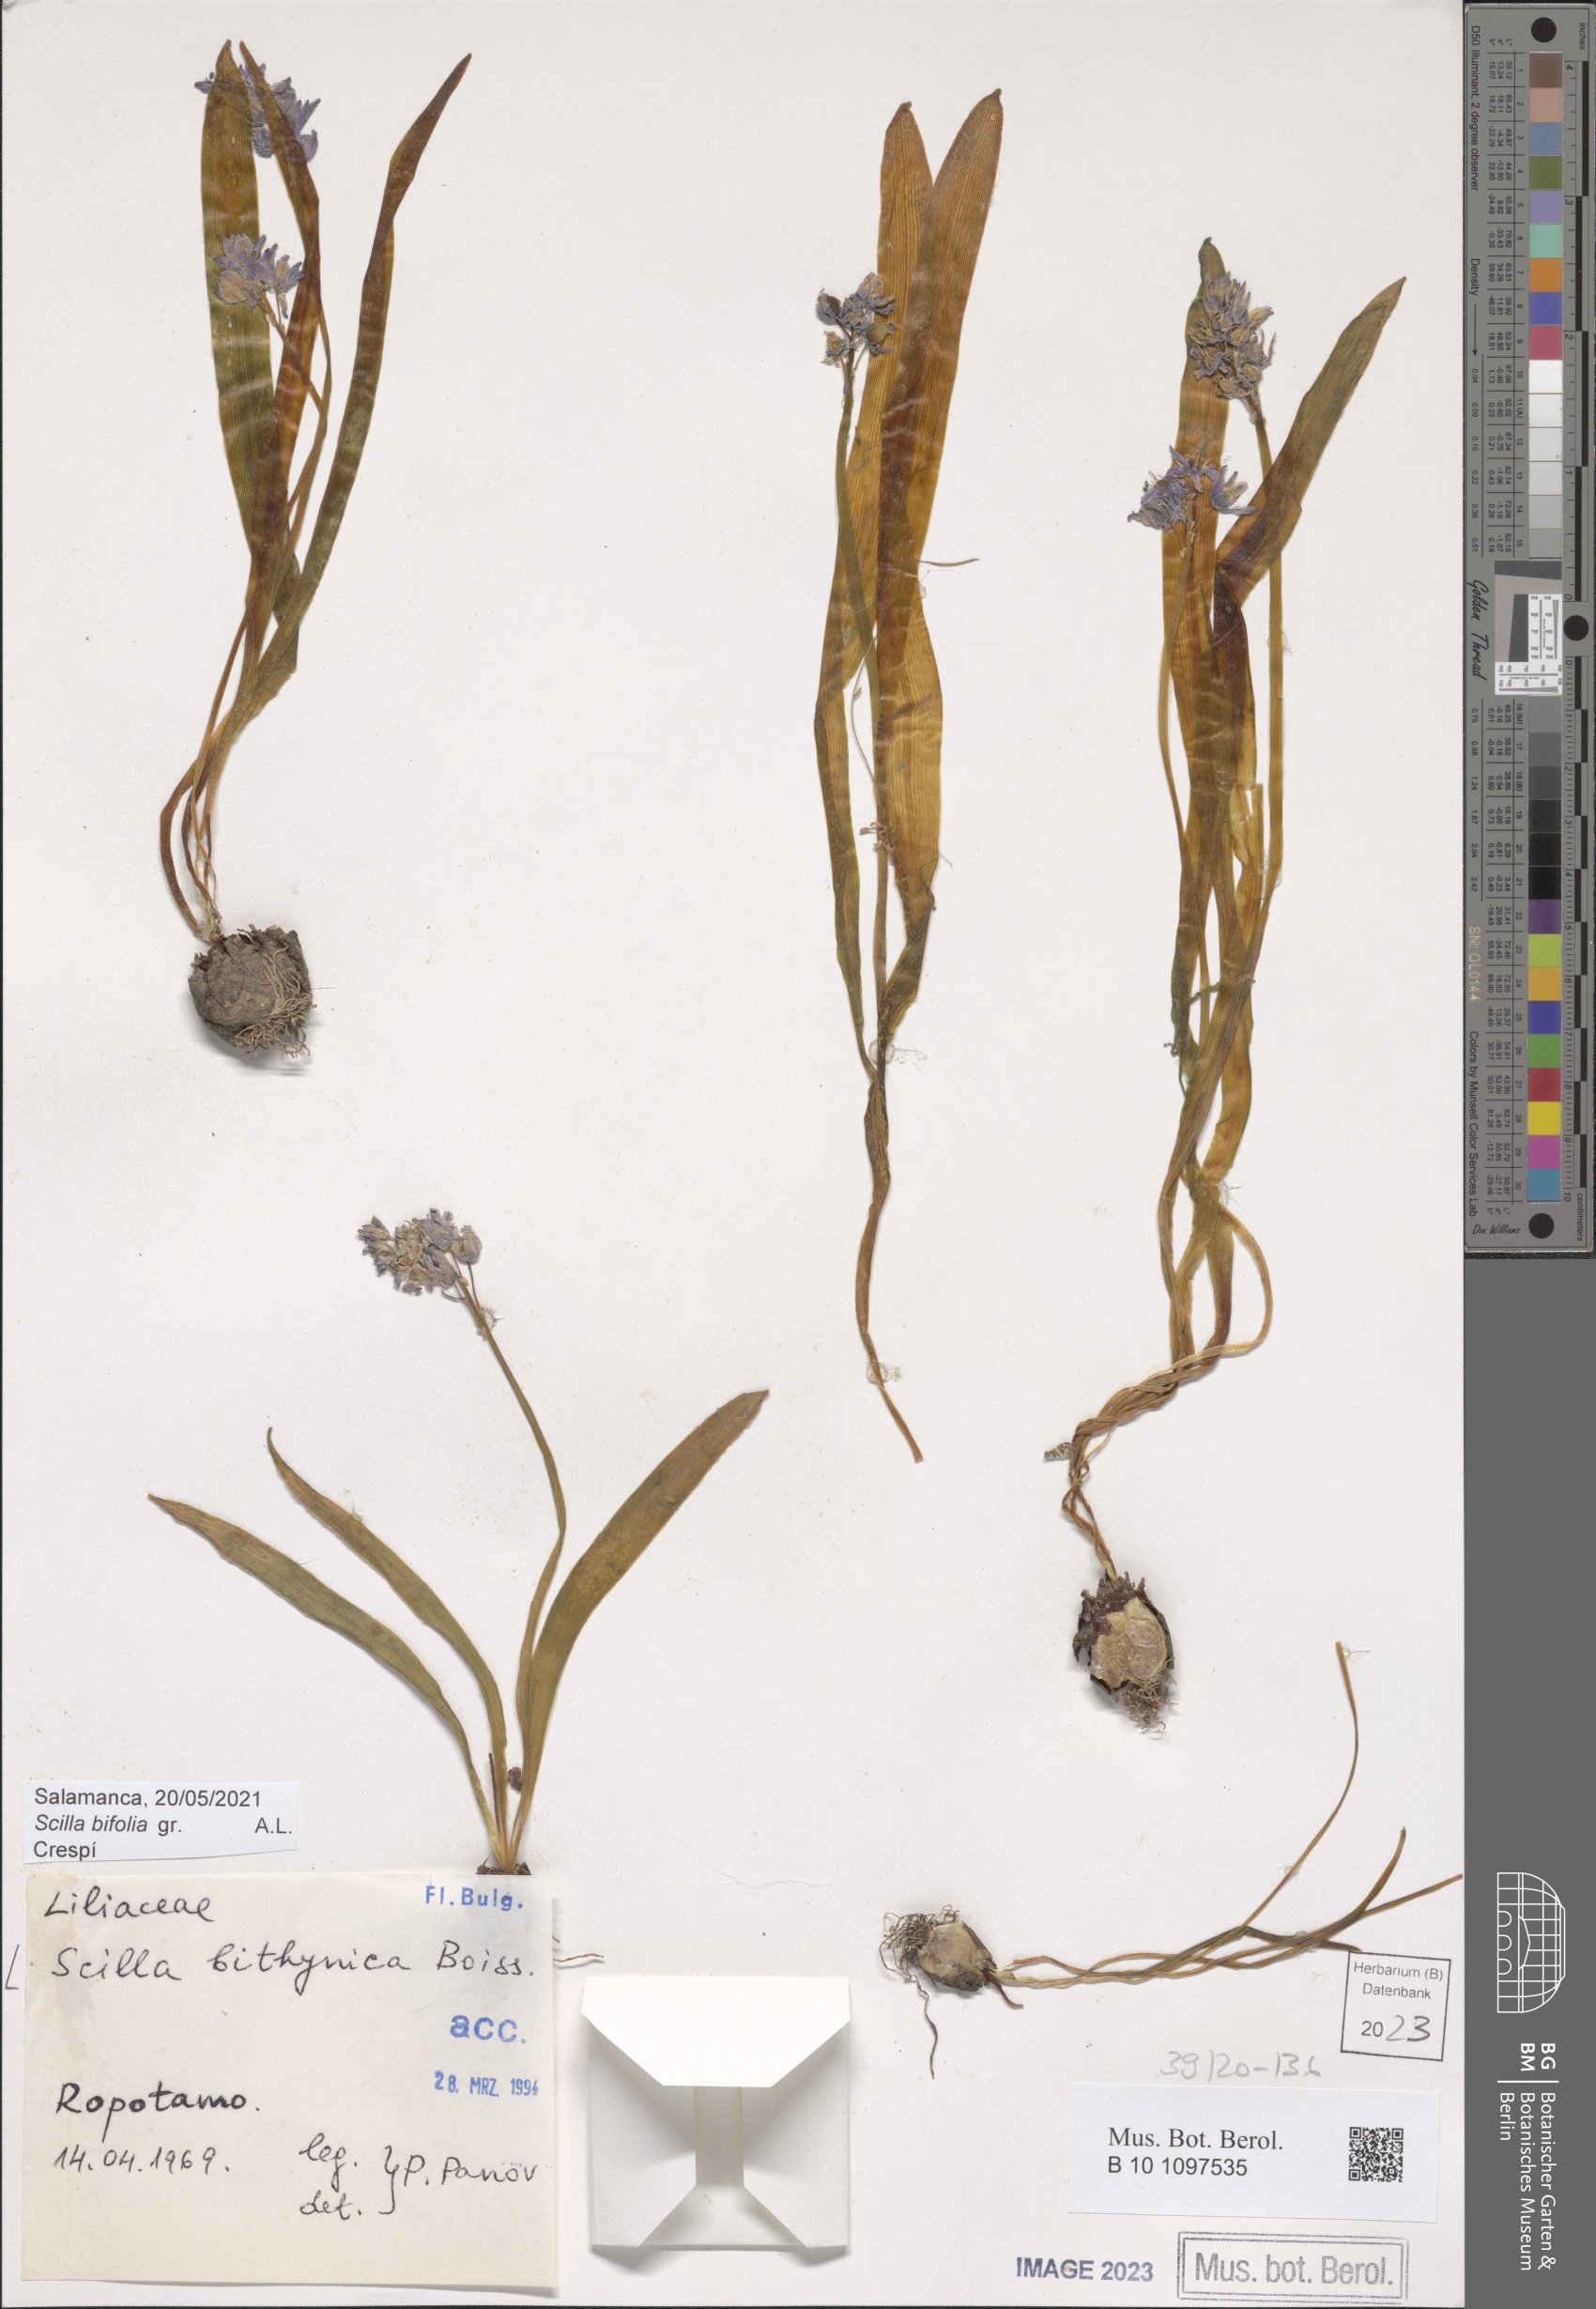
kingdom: Plantae
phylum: Tracheophyta
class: Liliopsida
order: Asparagales
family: Asparagaceae
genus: Scilla
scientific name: Scilla bithynica
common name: Turkish squill
